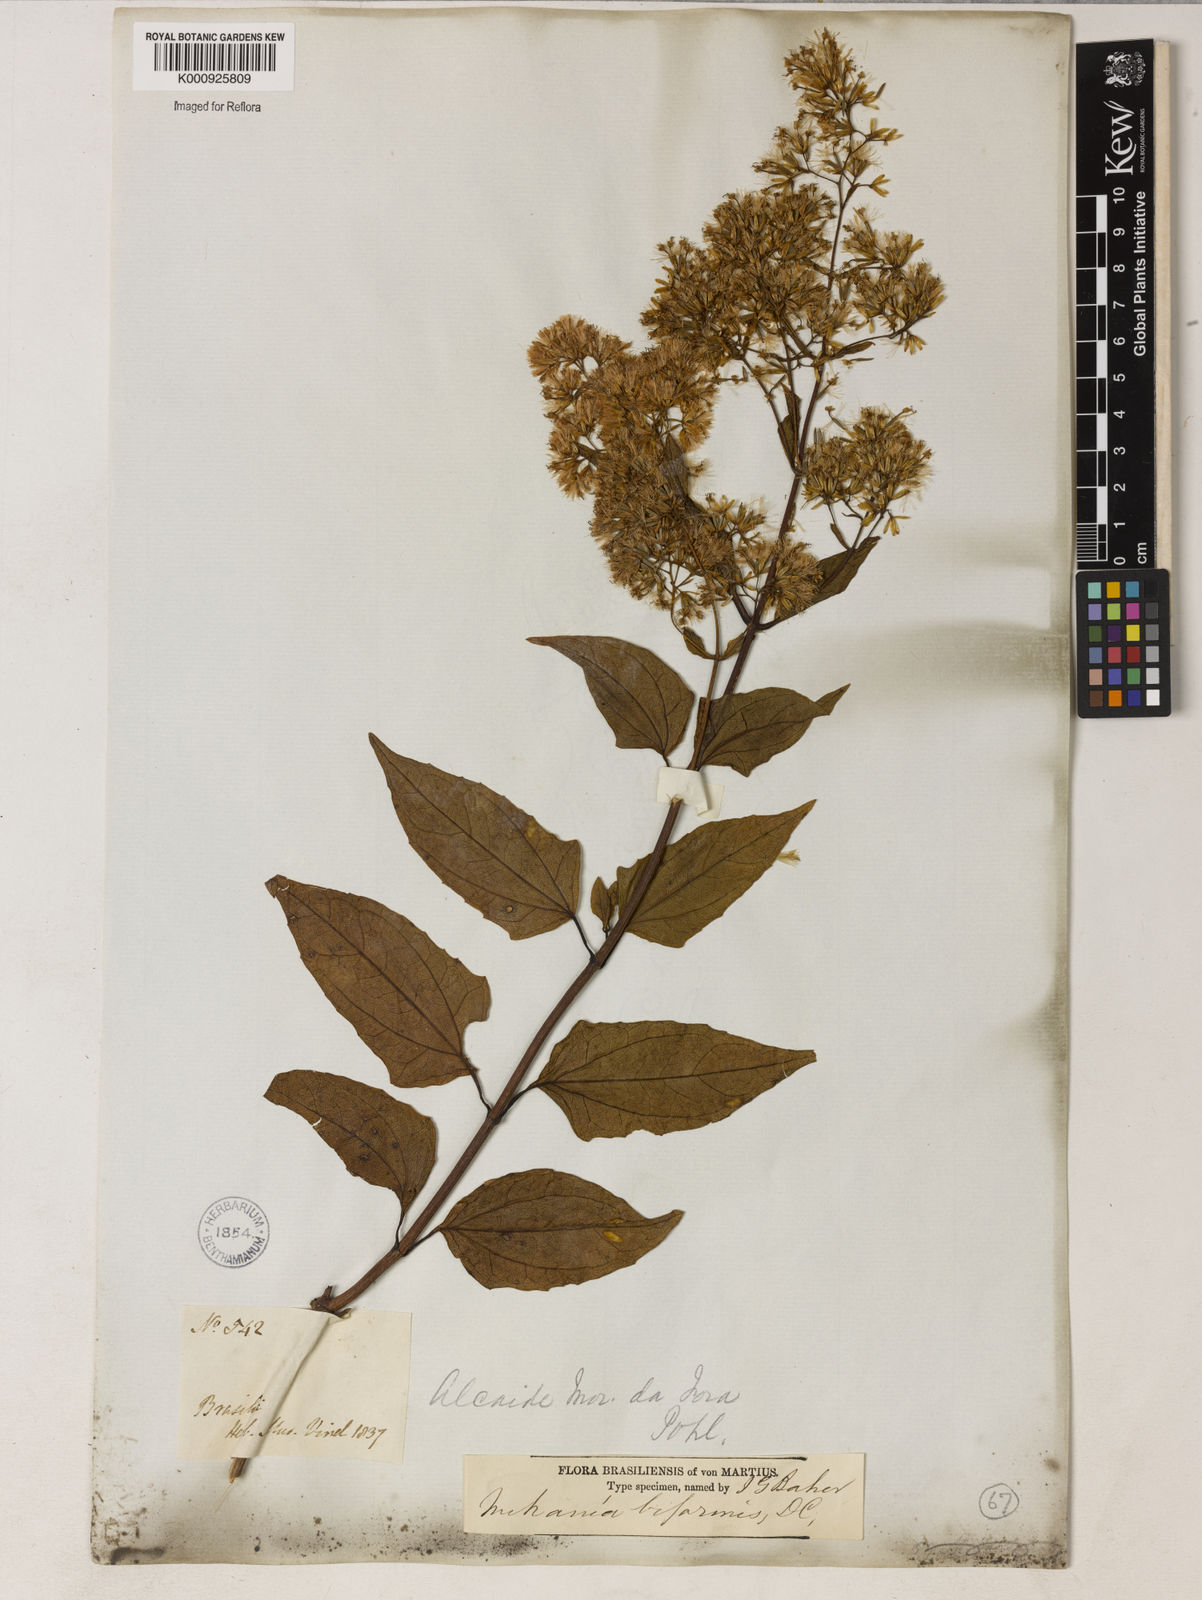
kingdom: Plantae
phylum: Tracheophyta
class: Magnoliopsida
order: Asterales
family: Asteraceae
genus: Mikania
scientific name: Mikania biformis
